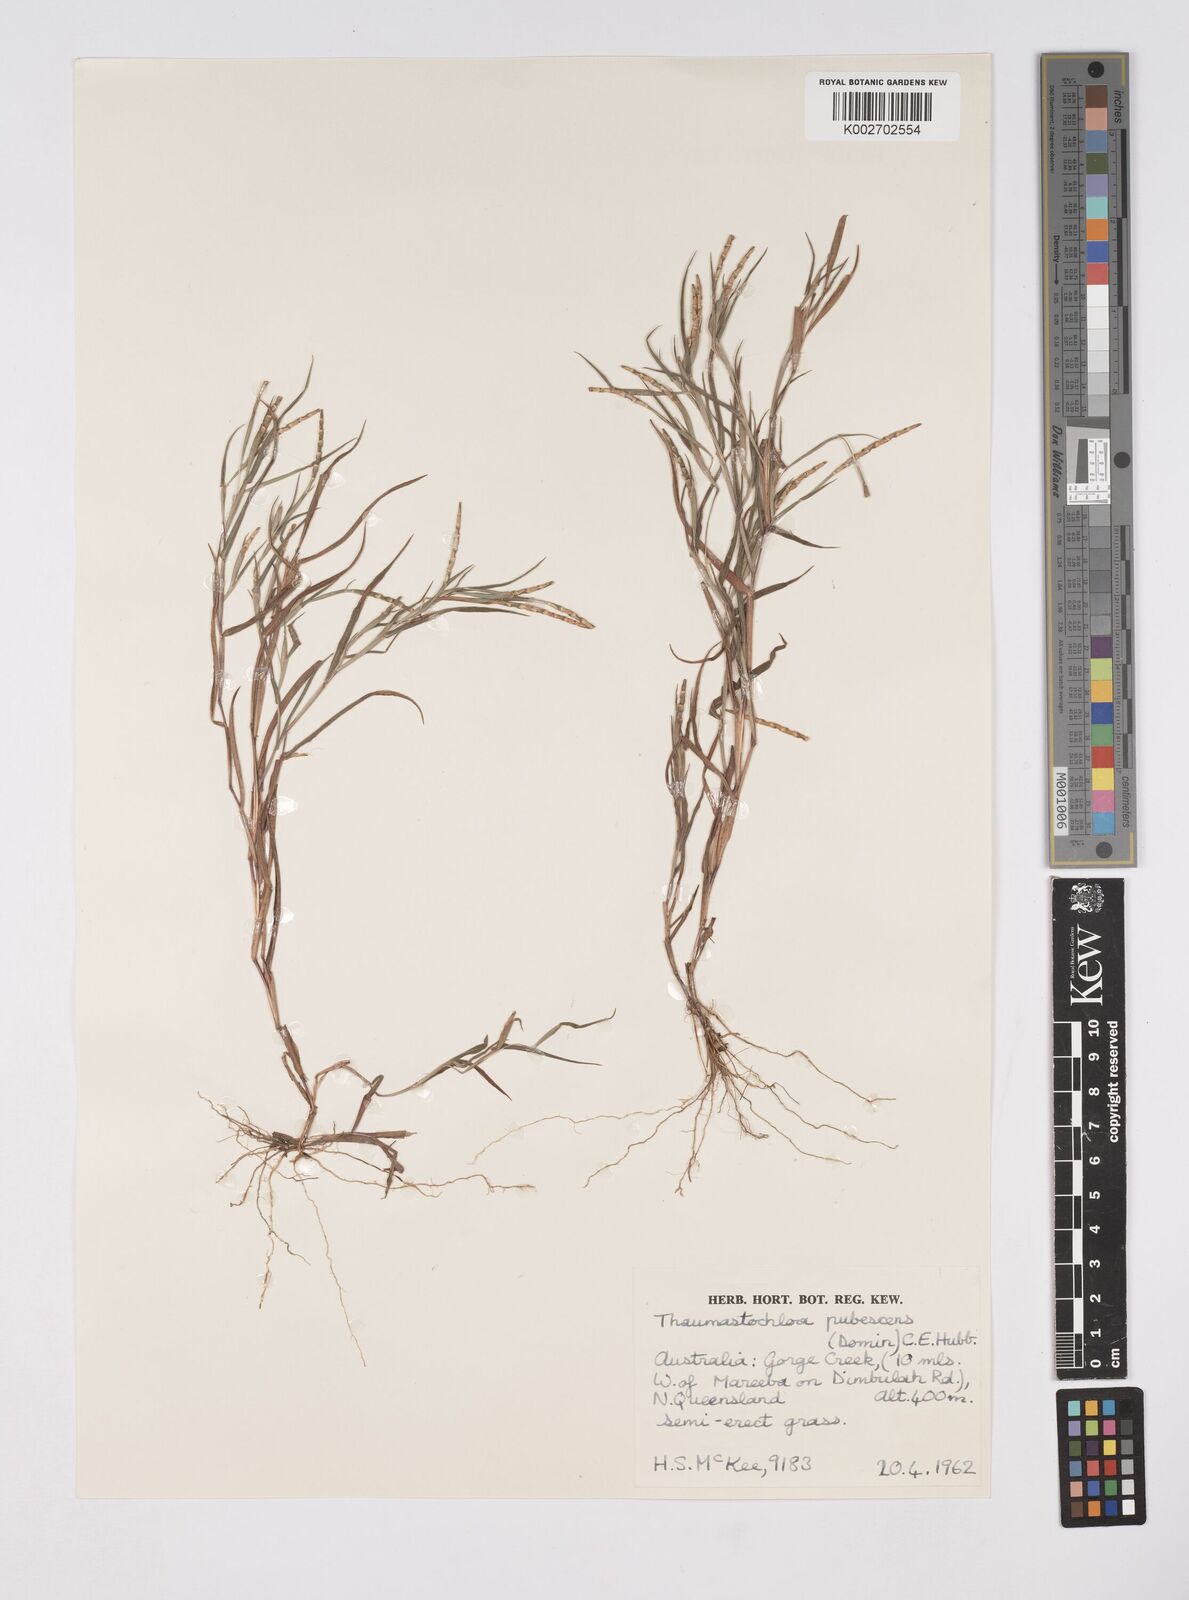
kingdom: Plantae
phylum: Tracheophyta
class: Liliopsida
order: Poales
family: Poaceae
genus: Thaumastochloa
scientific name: Thaumastochloa pubescens
